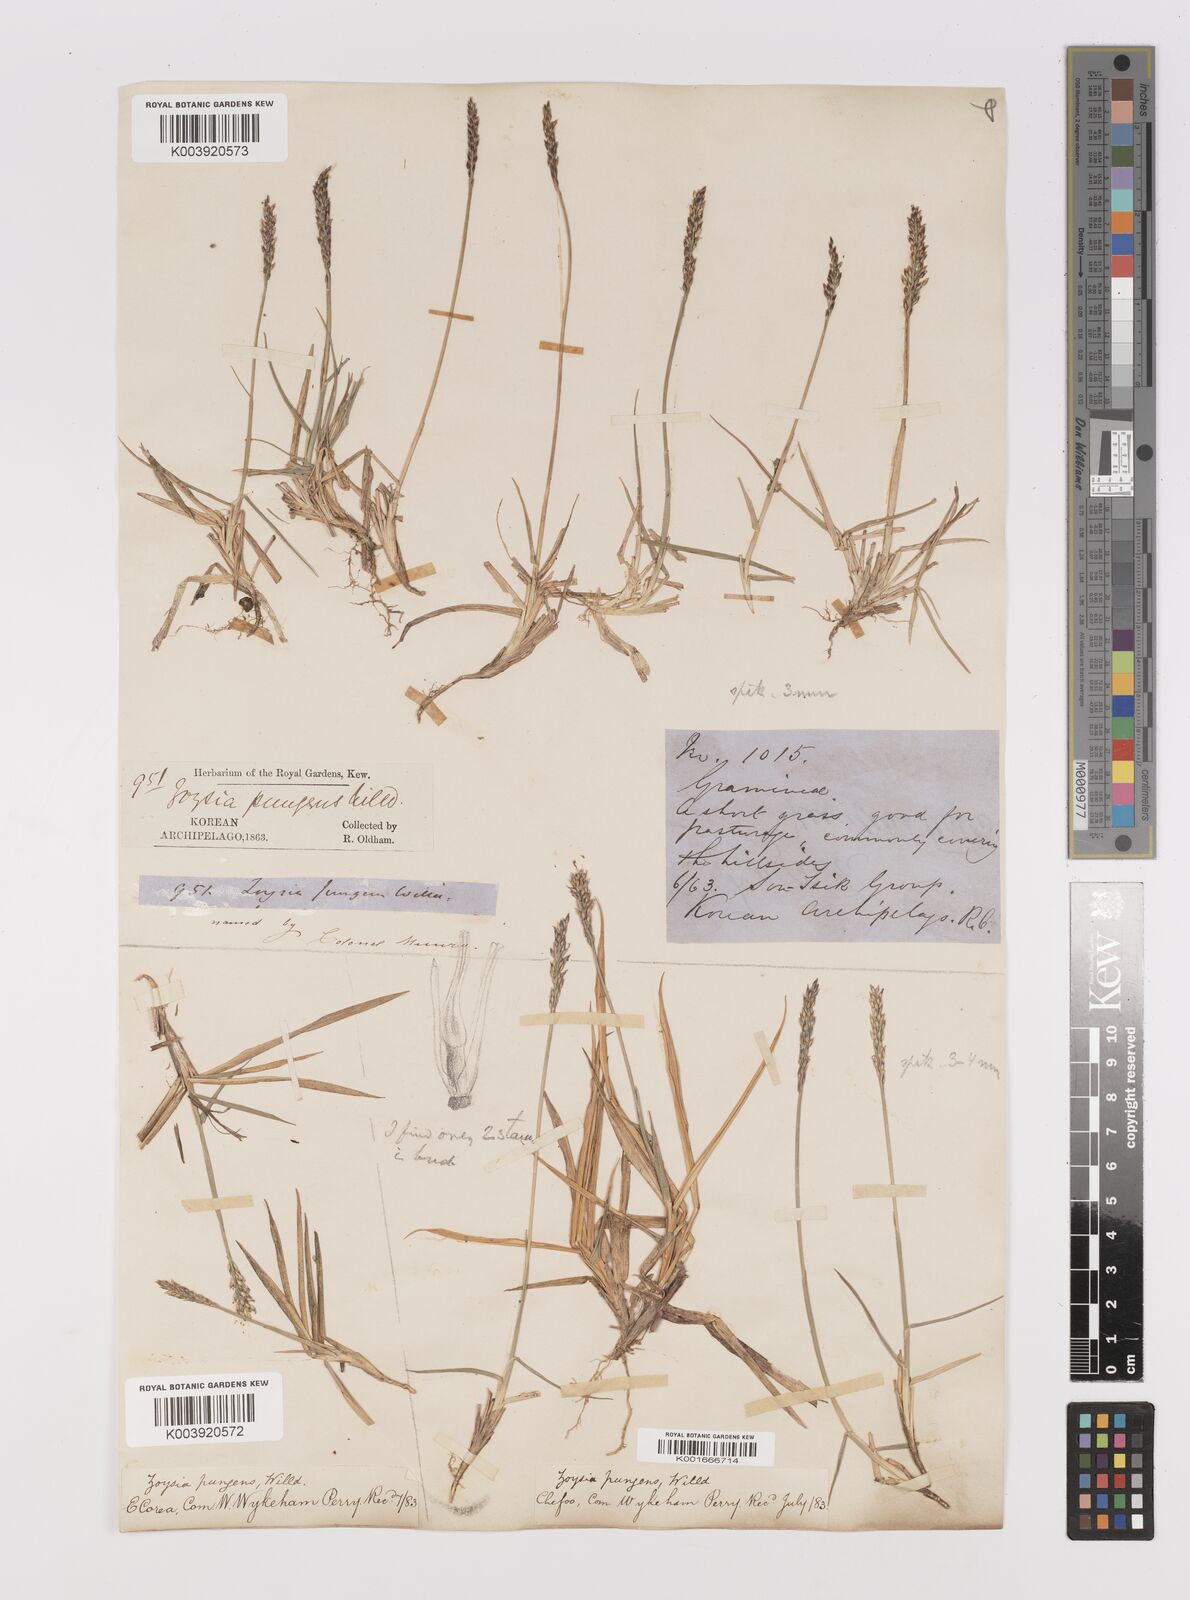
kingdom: Plantae
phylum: Tracheophyta
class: Liliopsida
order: Poales
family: Poaceae
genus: Zoysia
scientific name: Zoysia japonica
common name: Korean lawngrass
